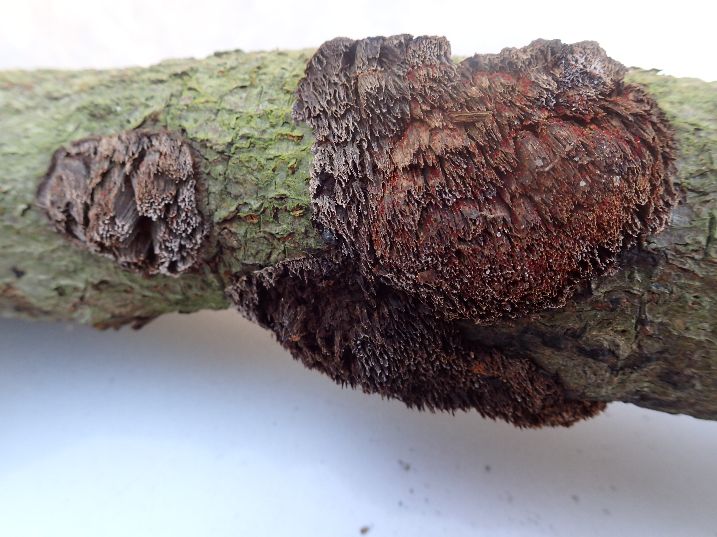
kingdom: Fungi
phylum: Basidiomycota
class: Agaricomycetes
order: Hymenochaetales
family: Hymenochaetaceae
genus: Mensularia
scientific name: Mensularia nodulosa
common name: bøge-spejlporesvamp
